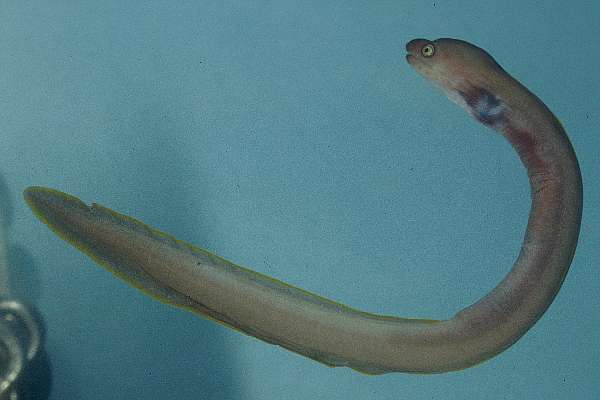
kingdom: Animalia
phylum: Chordata
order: Anguilliformes
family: Muraenidae
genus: Echidna
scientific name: Echidna unicolor
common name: Unicolor moray
